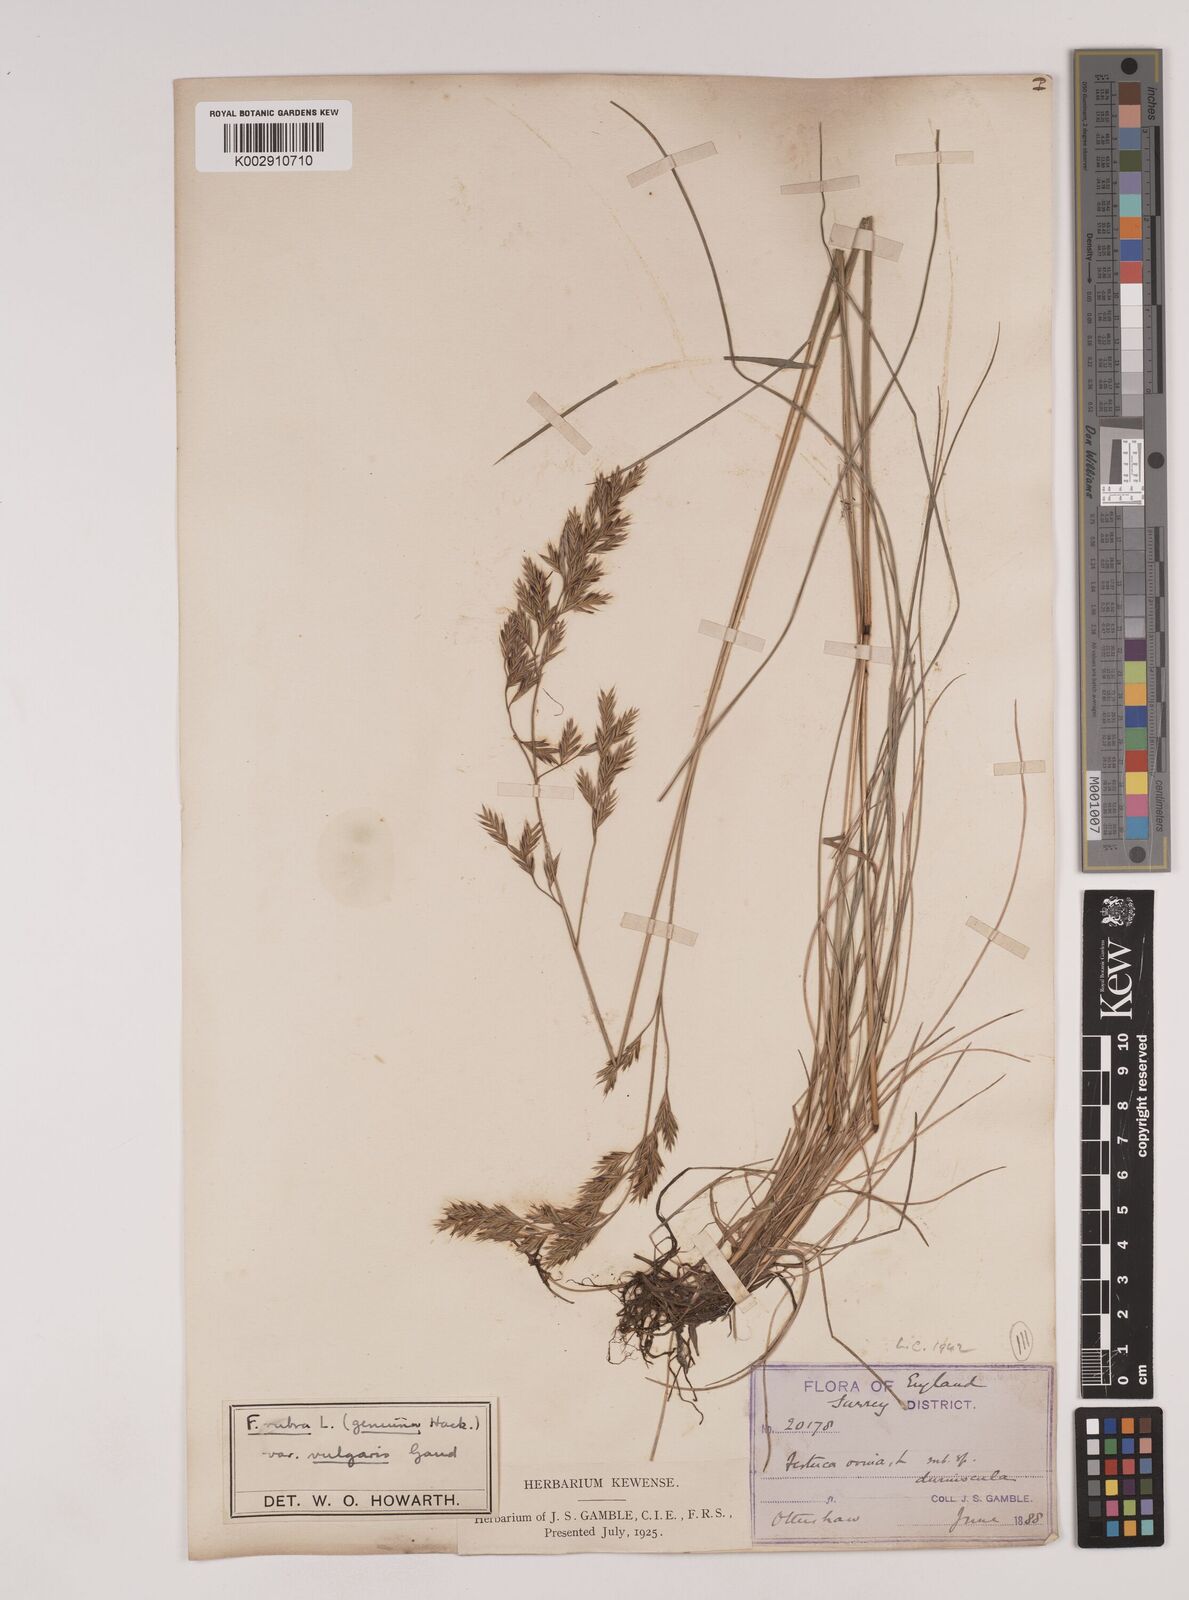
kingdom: Plantae
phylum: Tracheophyta
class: Liliopsida
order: Poales
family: Poaceae
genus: Festuca
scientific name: Festuca rubra
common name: Red fescue
